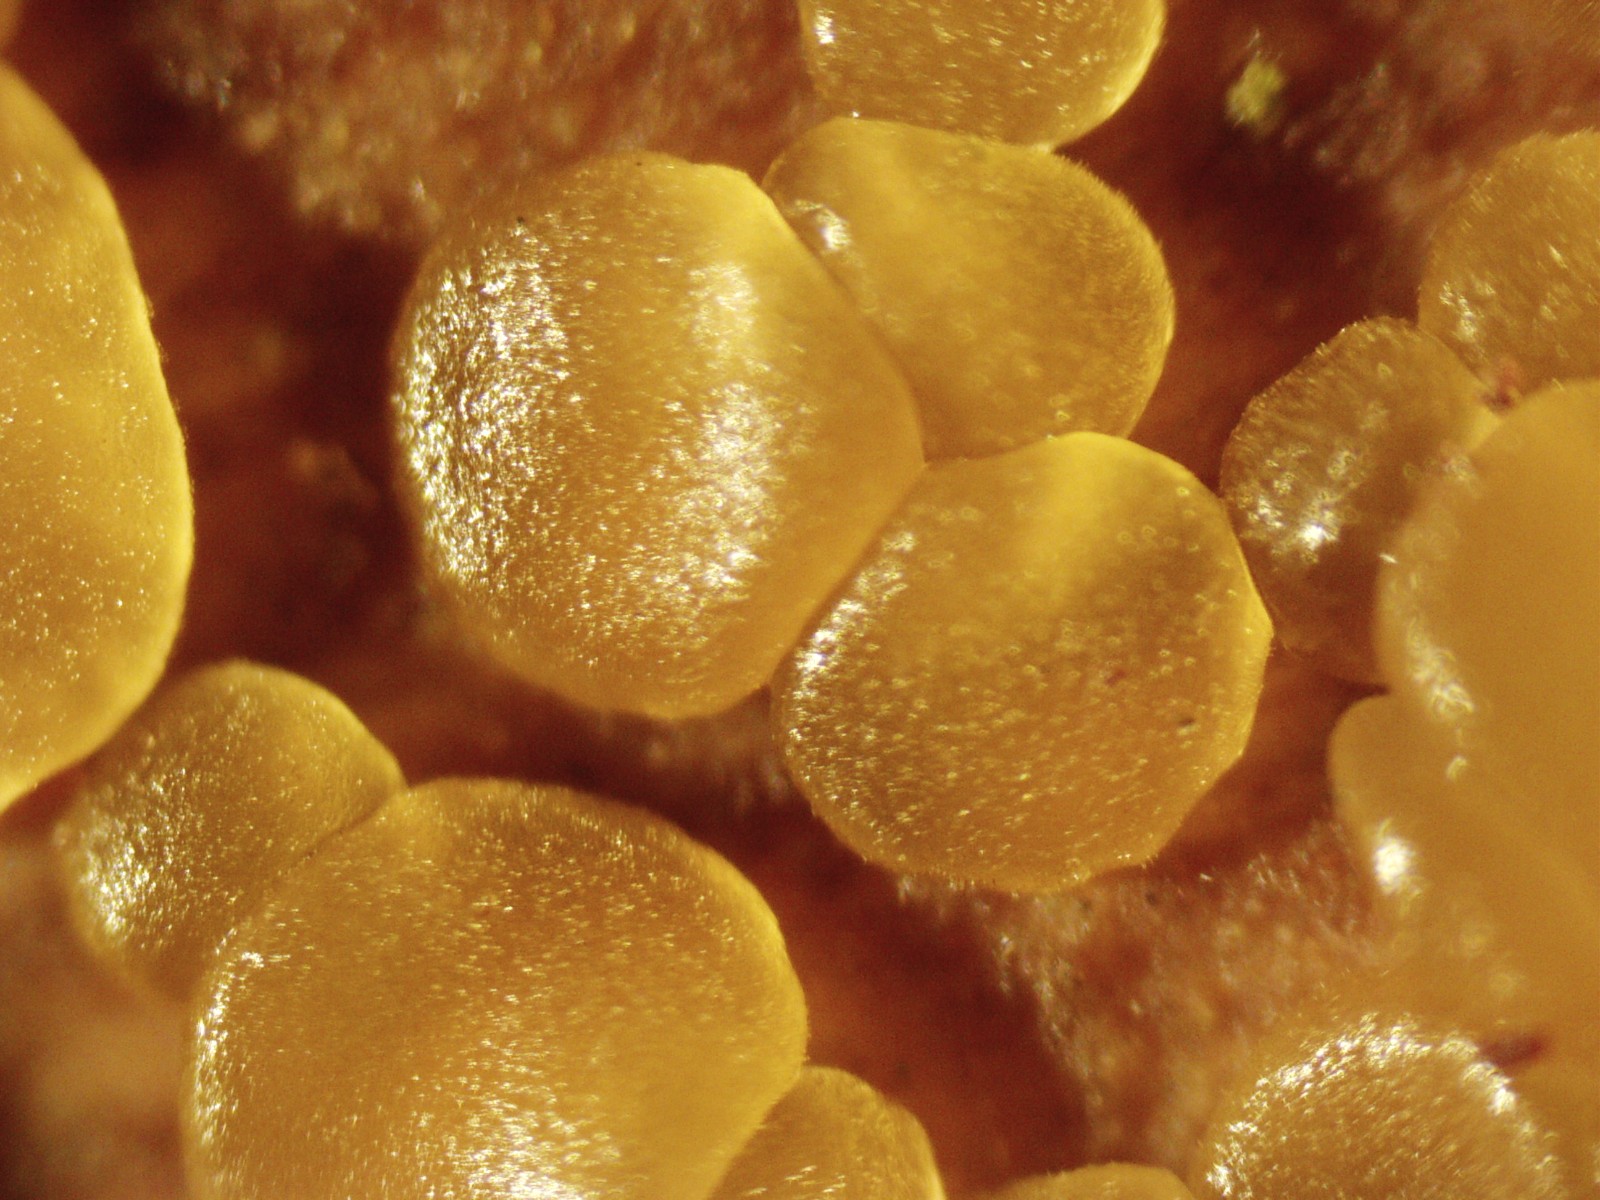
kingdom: Fungi
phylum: Basidiomycota
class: Dacrymycetes
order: Dacrymycetales
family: Dacrymycetaceae
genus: Dacrymyces
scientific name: Dacrymyces minor
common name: lille tåresvamp
